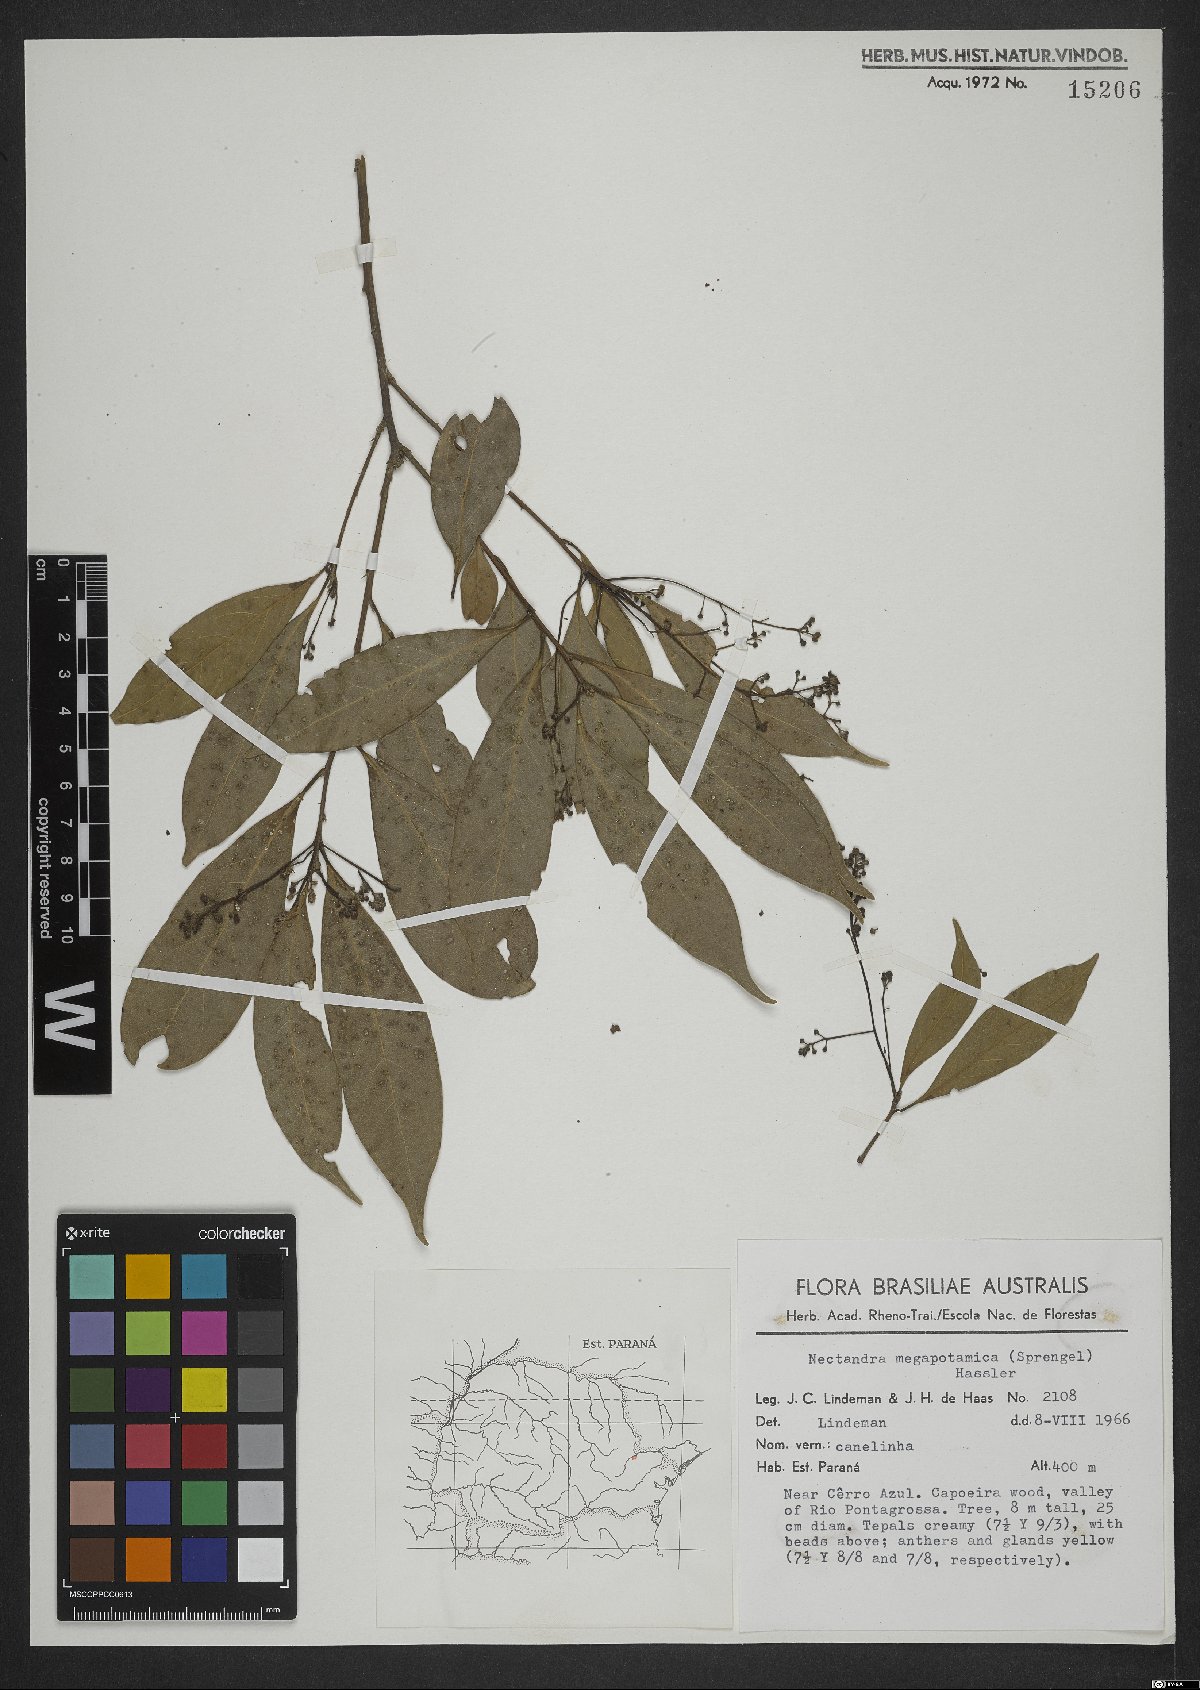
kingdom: Plantae
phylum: Tracheophyta
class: Magnoliopsida
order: Laurales
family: Lauraceae
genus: Nectandra
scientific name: Nectandra megapotamica
